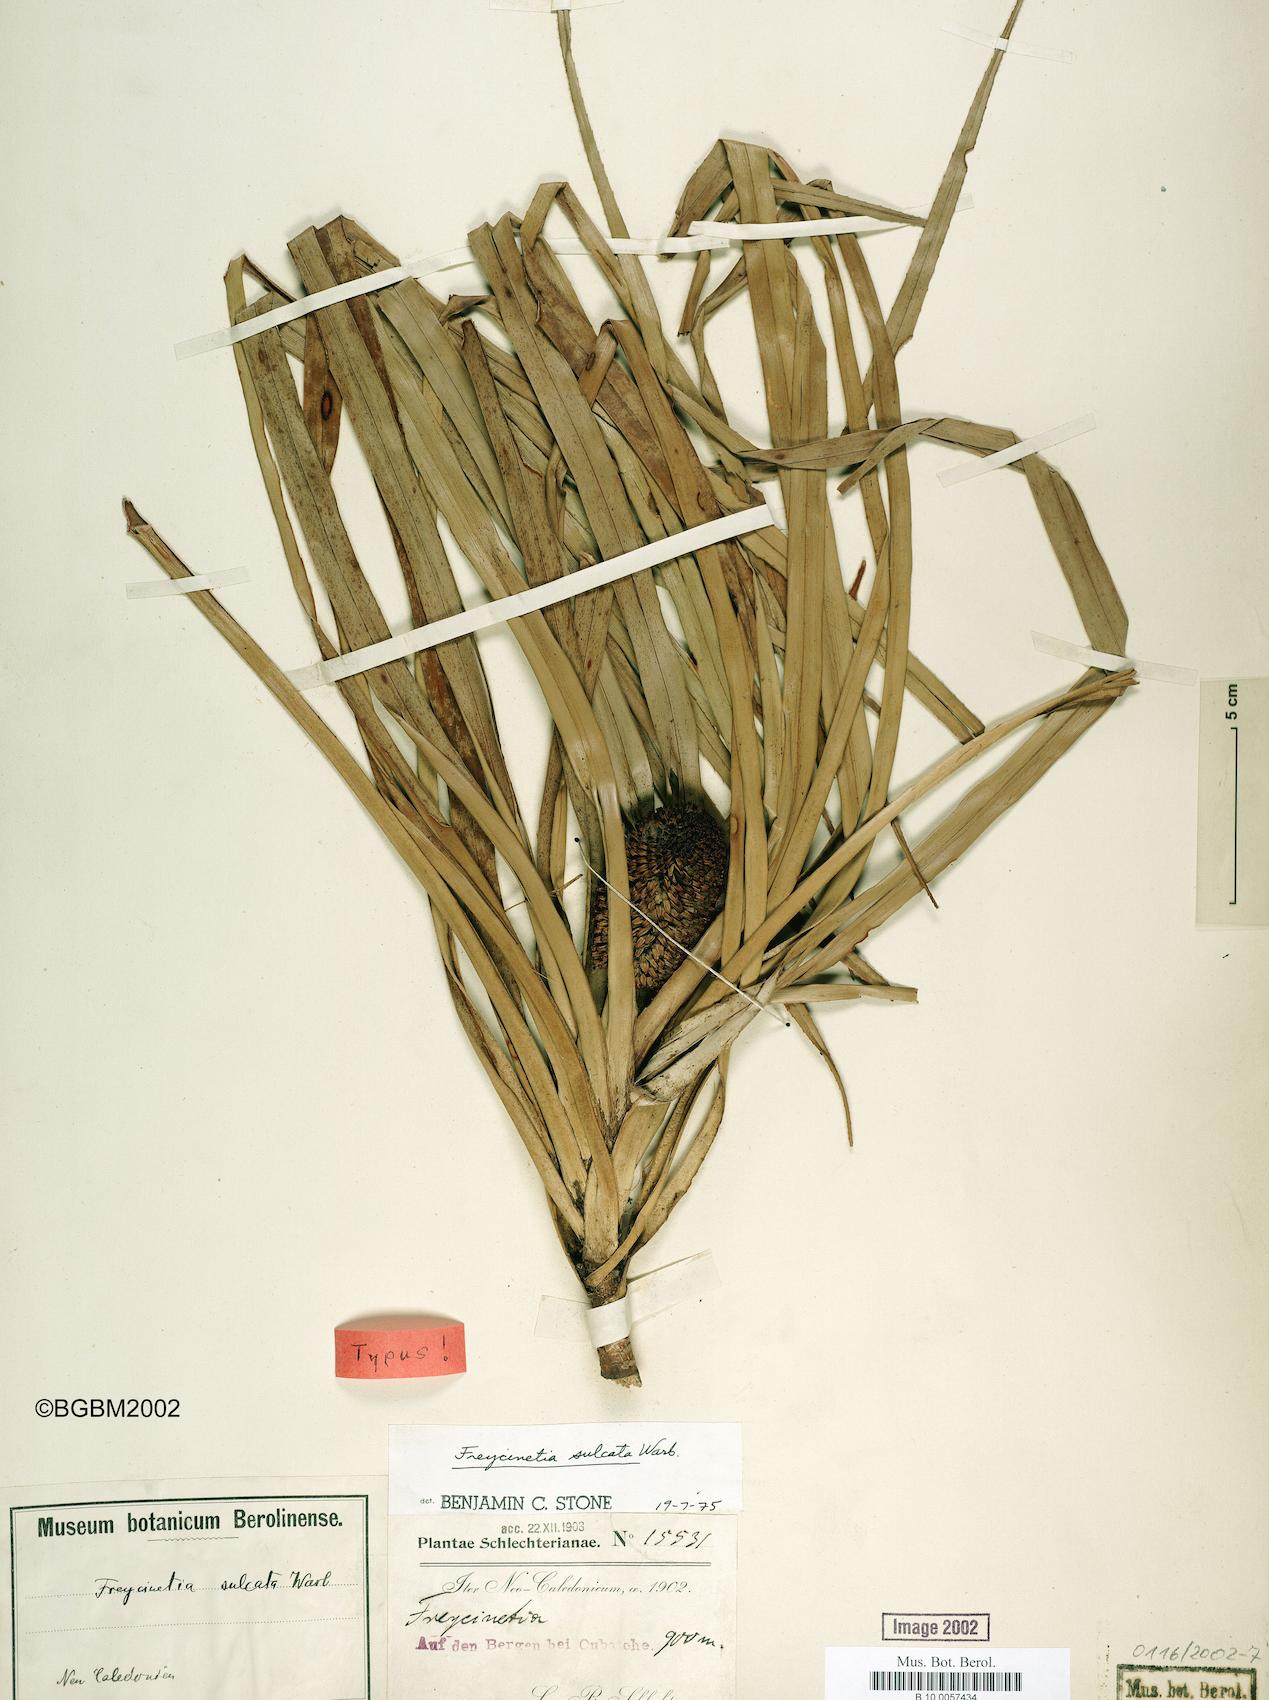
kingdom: Plantae
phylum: Tracheophyta
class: Liliopsida
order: Pandanales
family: Pandanaceae
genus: Freycinetia
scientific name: Freycinetia sulcata
